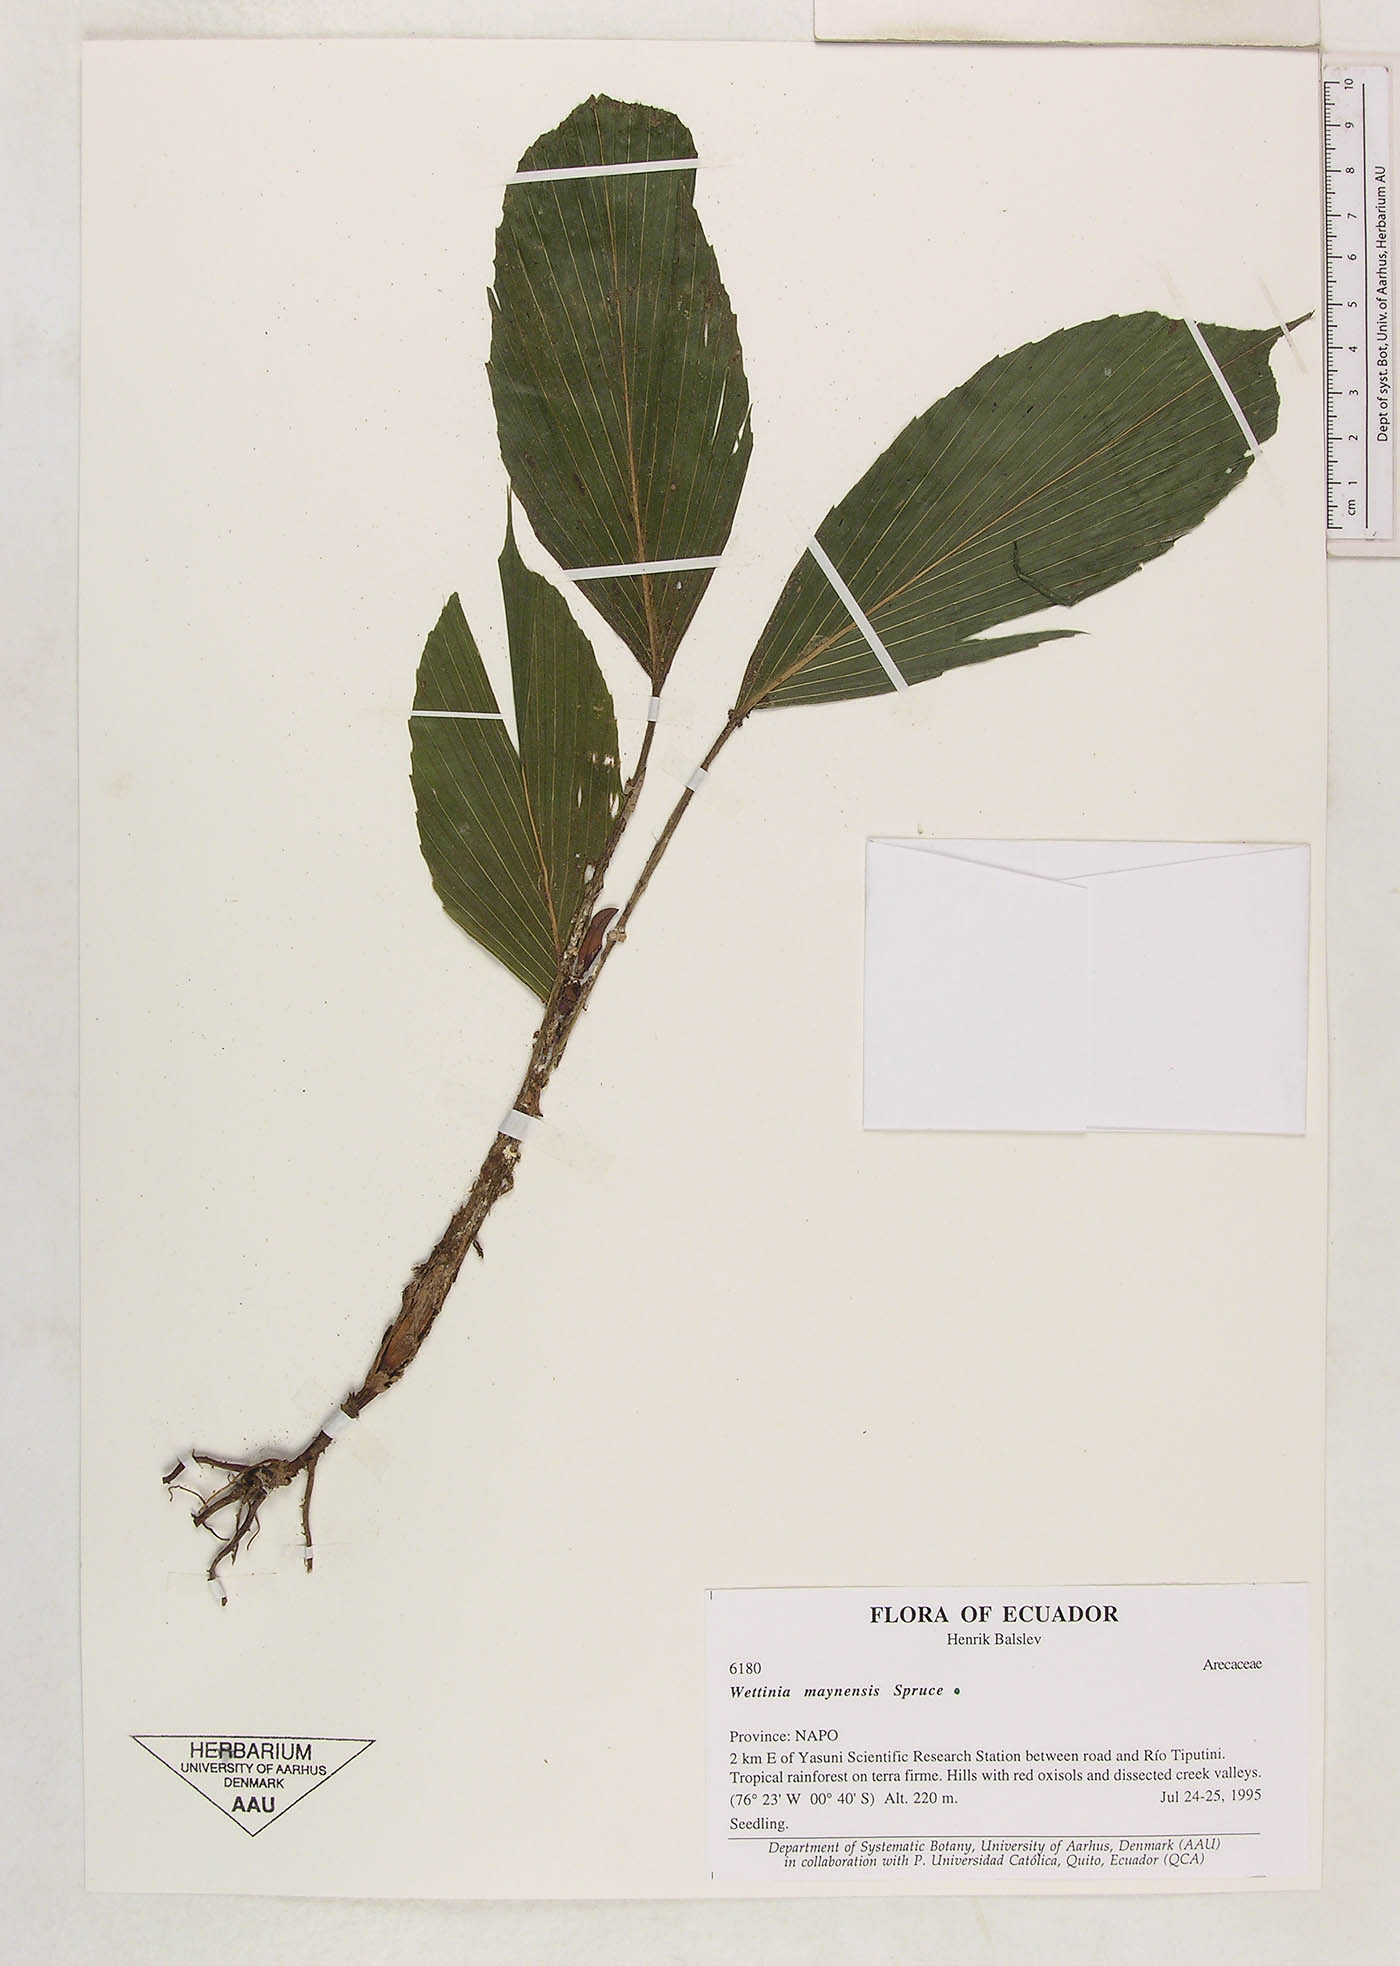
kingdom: Plantae
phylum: Tracheophyta
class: Liliopsida
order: Arecales
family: Arecaceae
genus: Wettinia
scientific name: Wettinia maynensis
